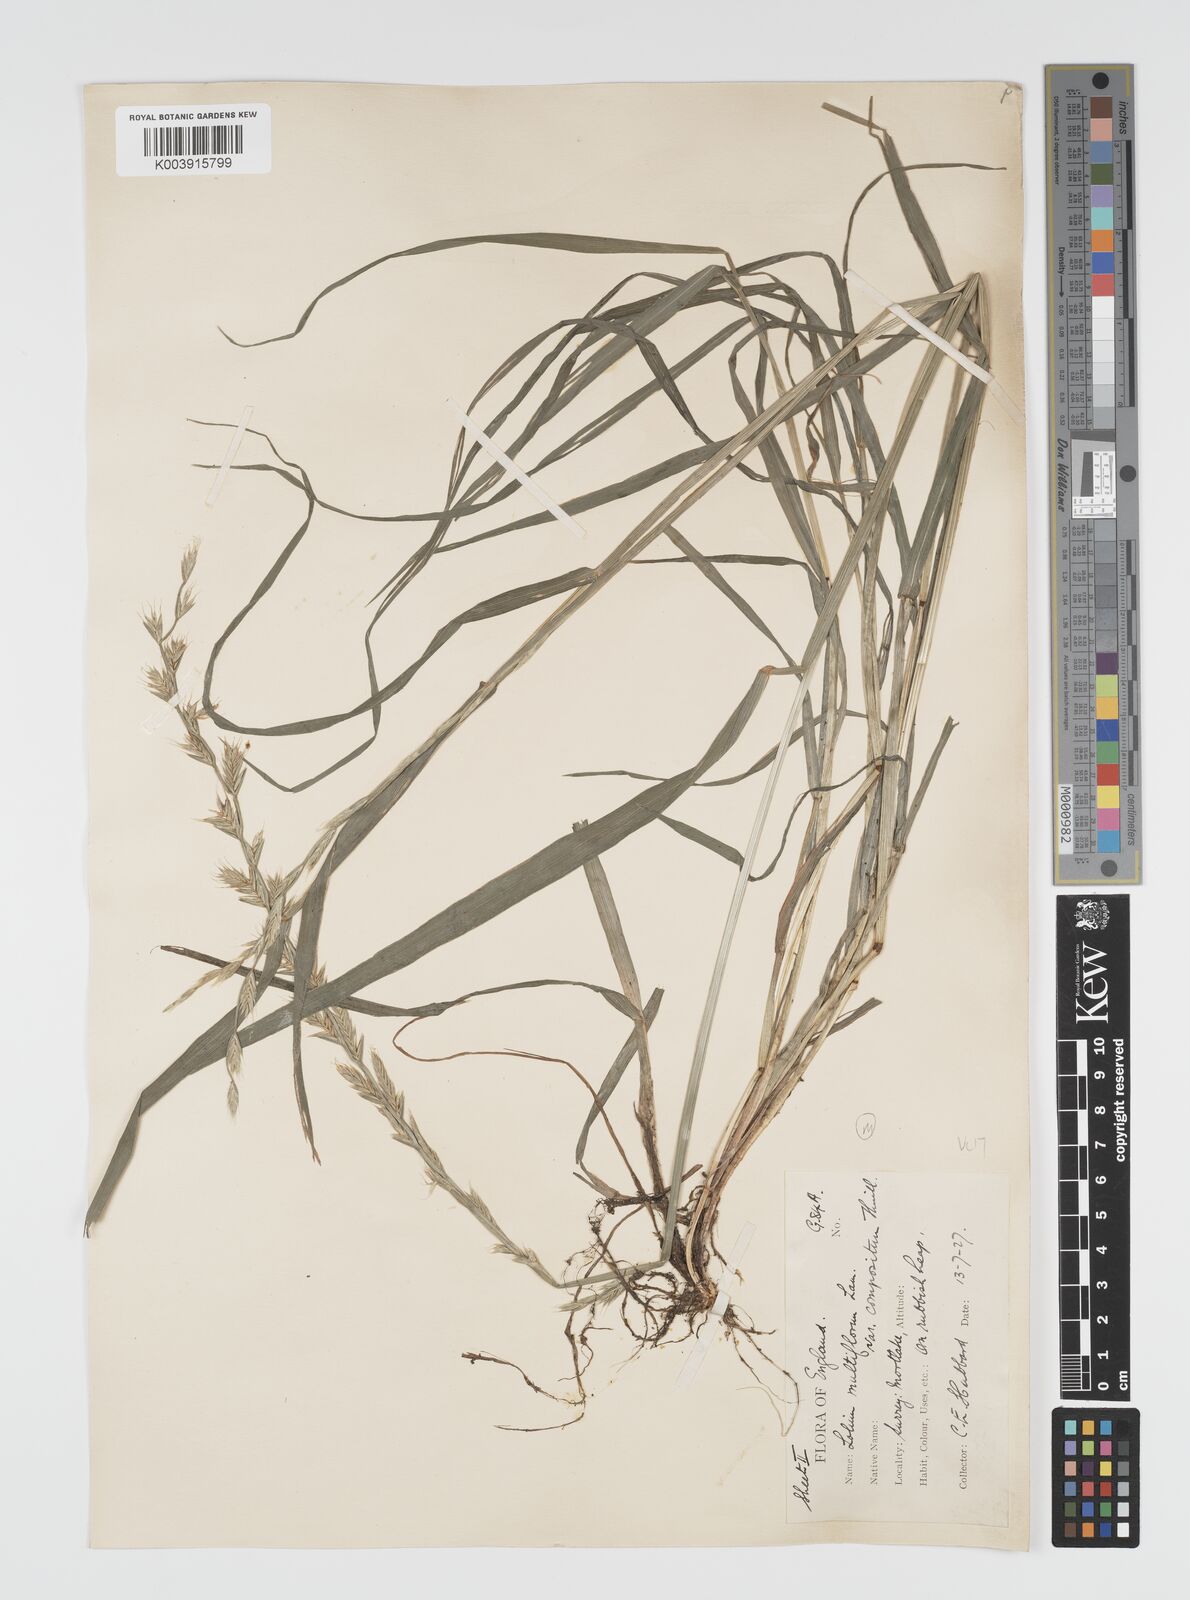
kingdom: Plantae
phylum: Tracheophyta
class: Liliopsida
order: Poales
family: Poaceae
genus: Lolium
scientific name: Lolium multiflorum
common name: Annual ryegrass
